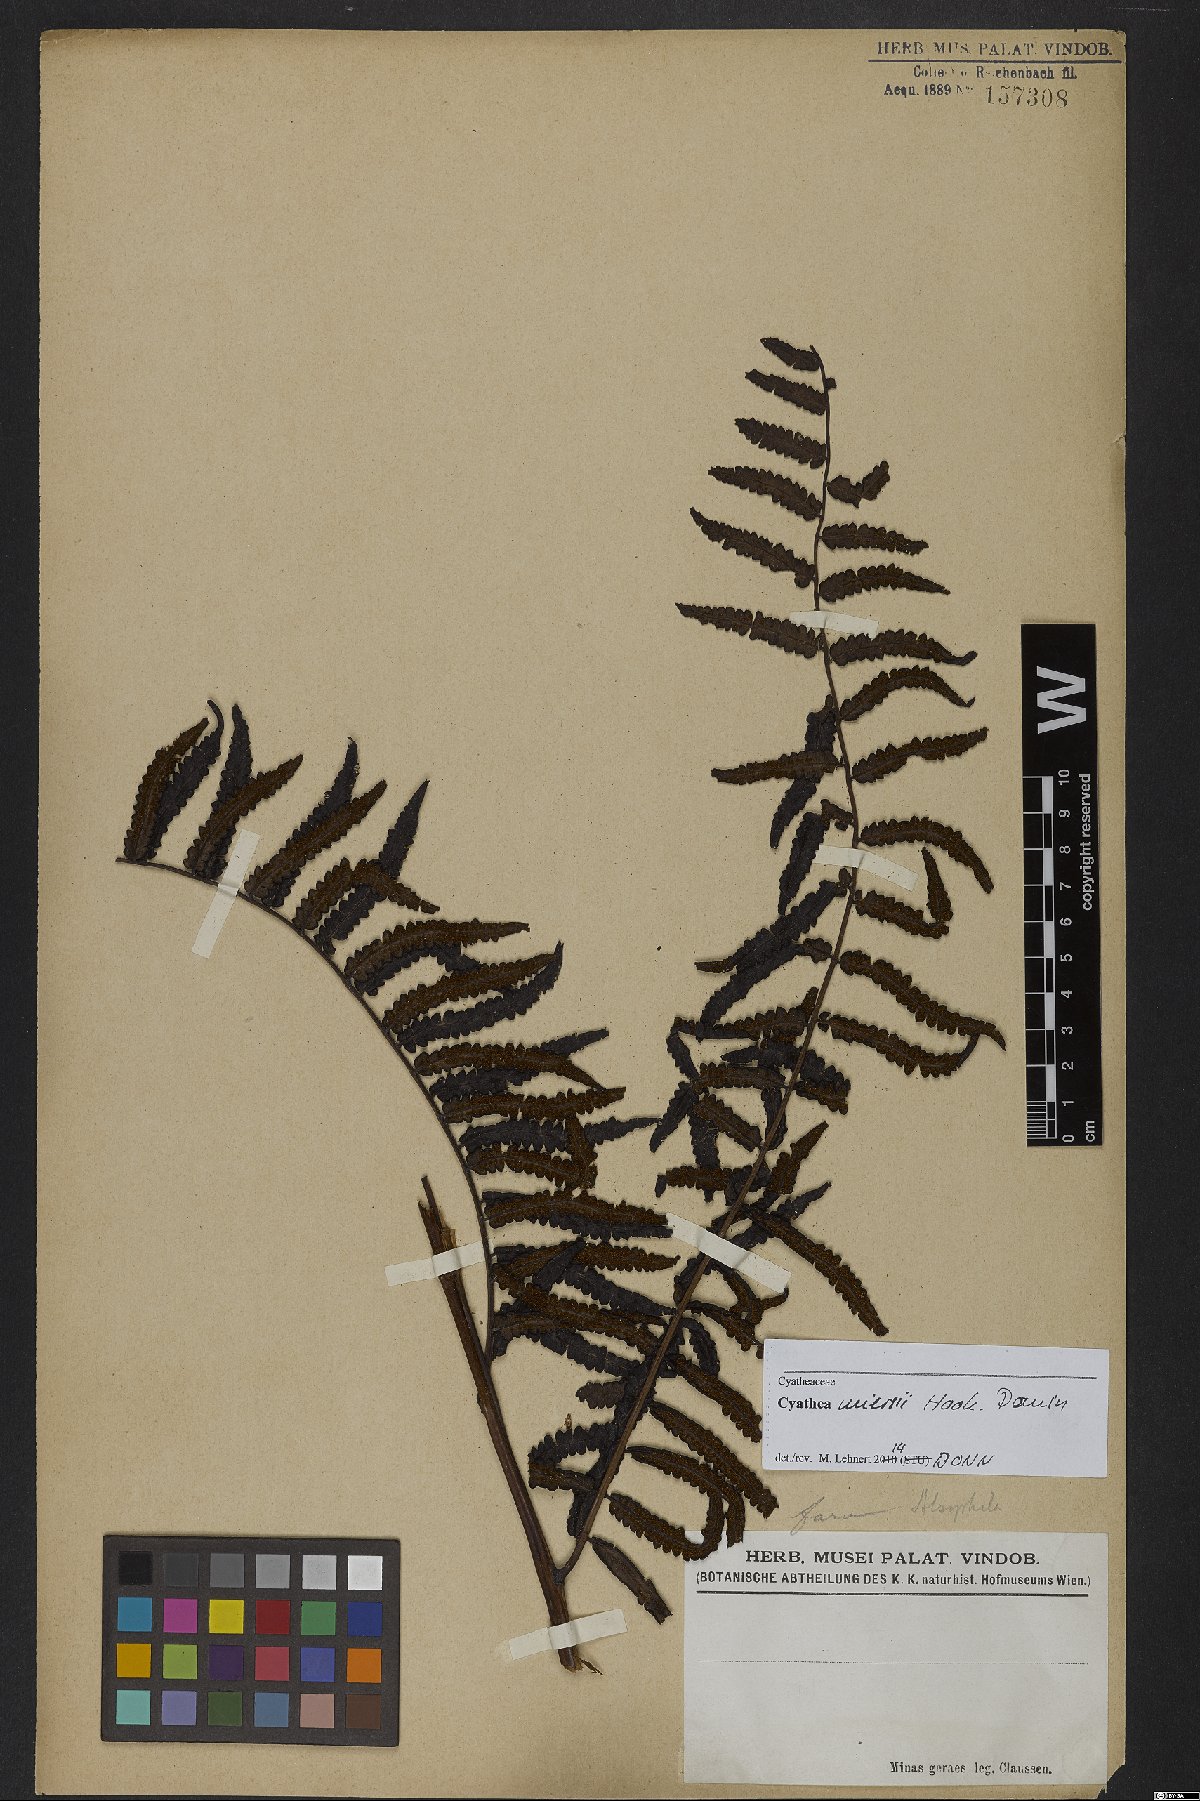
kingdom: Plantae
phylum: Tracheophyta
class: Polypodiopsida
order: Cyatheales
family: Cyatheaceae
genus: Cyathea
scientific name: Cyathea miersii
